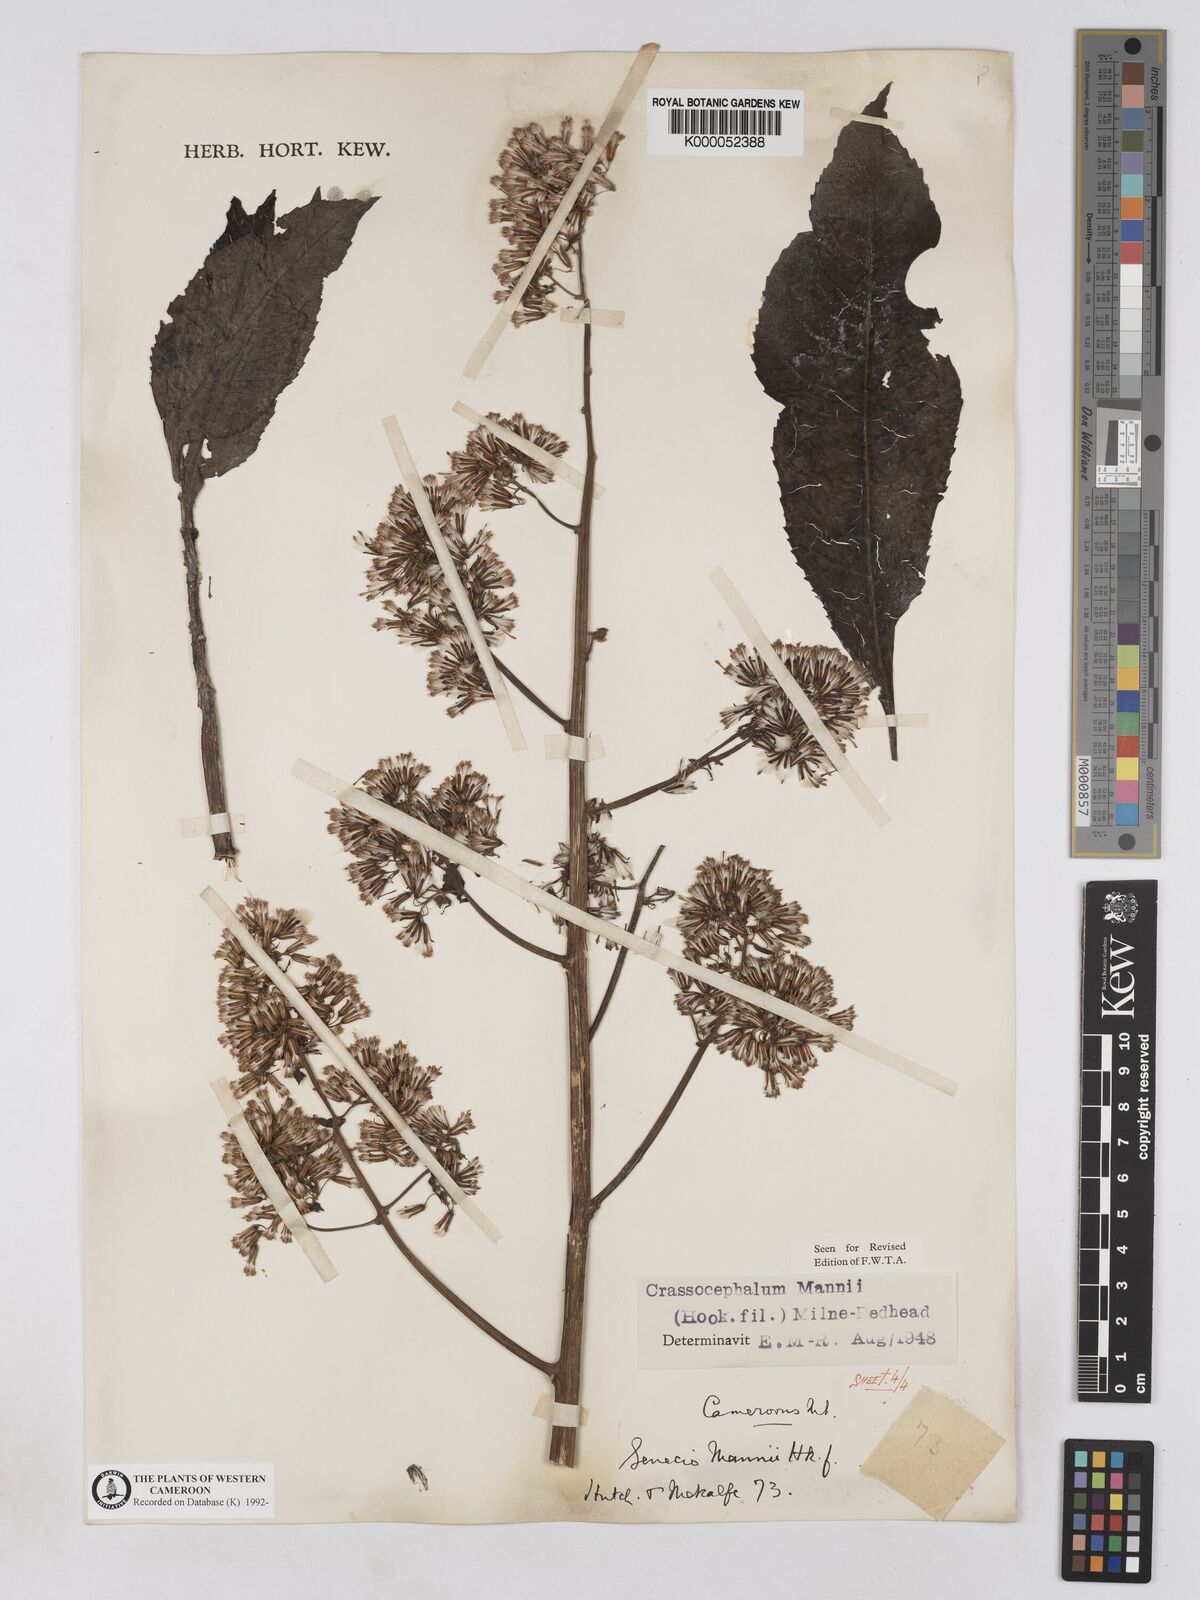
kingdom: Plantae
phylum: Tracheophyta
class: Magnoliopsida
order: Asterales
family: Asteraceae
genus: Solanecio
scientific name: Solanecio mannii
